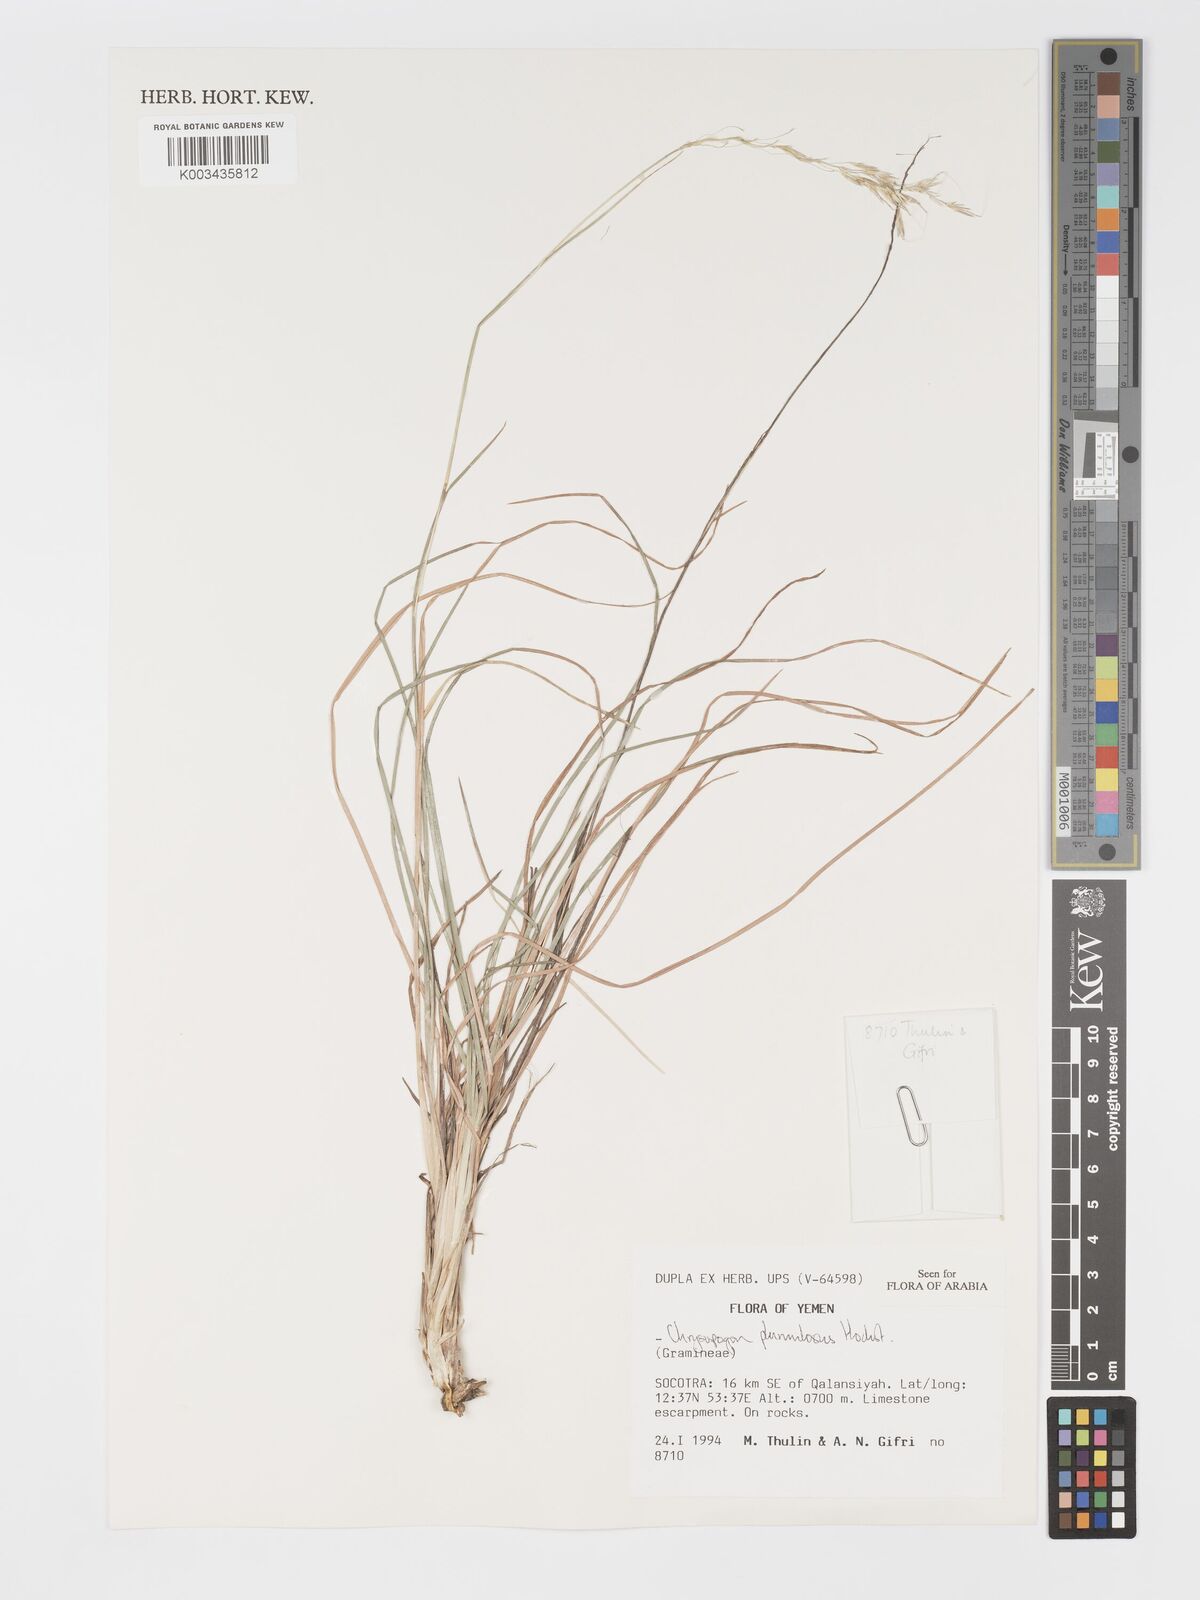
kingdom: Plantae
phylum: Tracheophyta
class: Liliopsida
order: Poales
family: Poaceae
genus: Chrysopogon
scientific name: Chrysopogon plumulosus
